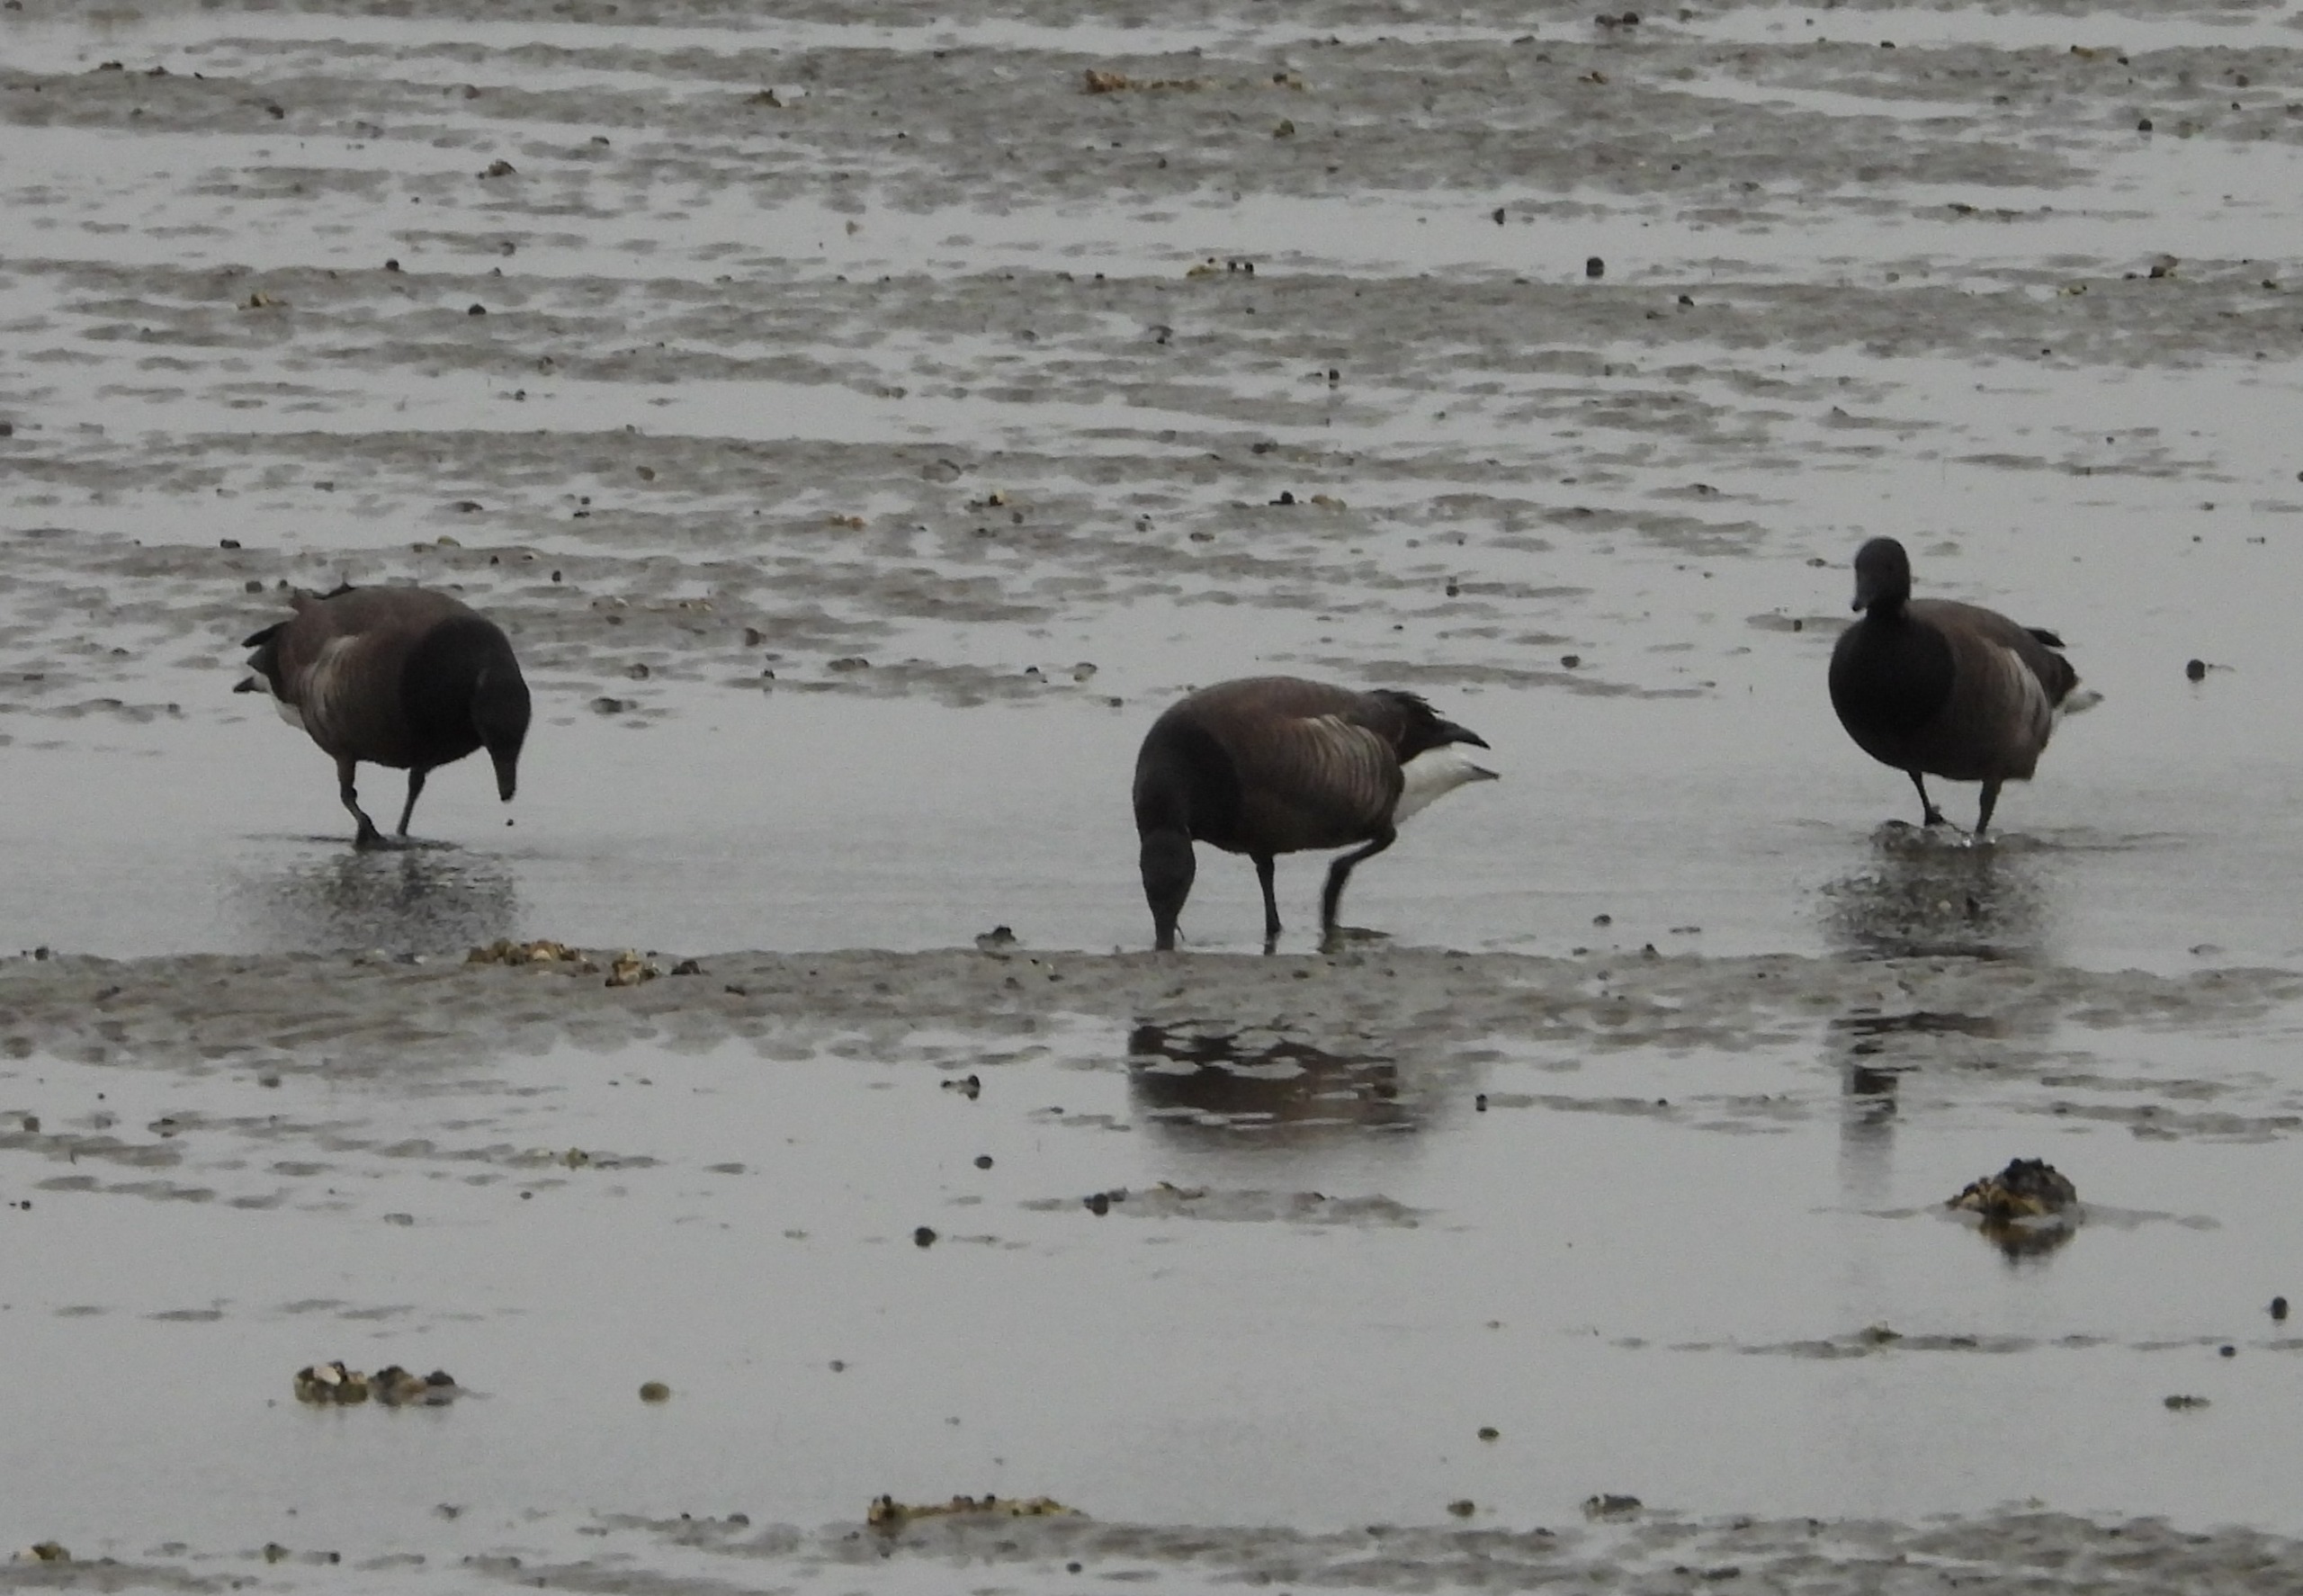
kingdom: Animalia
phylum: Chordata
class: Aves
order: Anseriformes
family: Anatidae
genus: Branta
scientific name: Branta bernicla
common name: Mørkbuget knortegås
